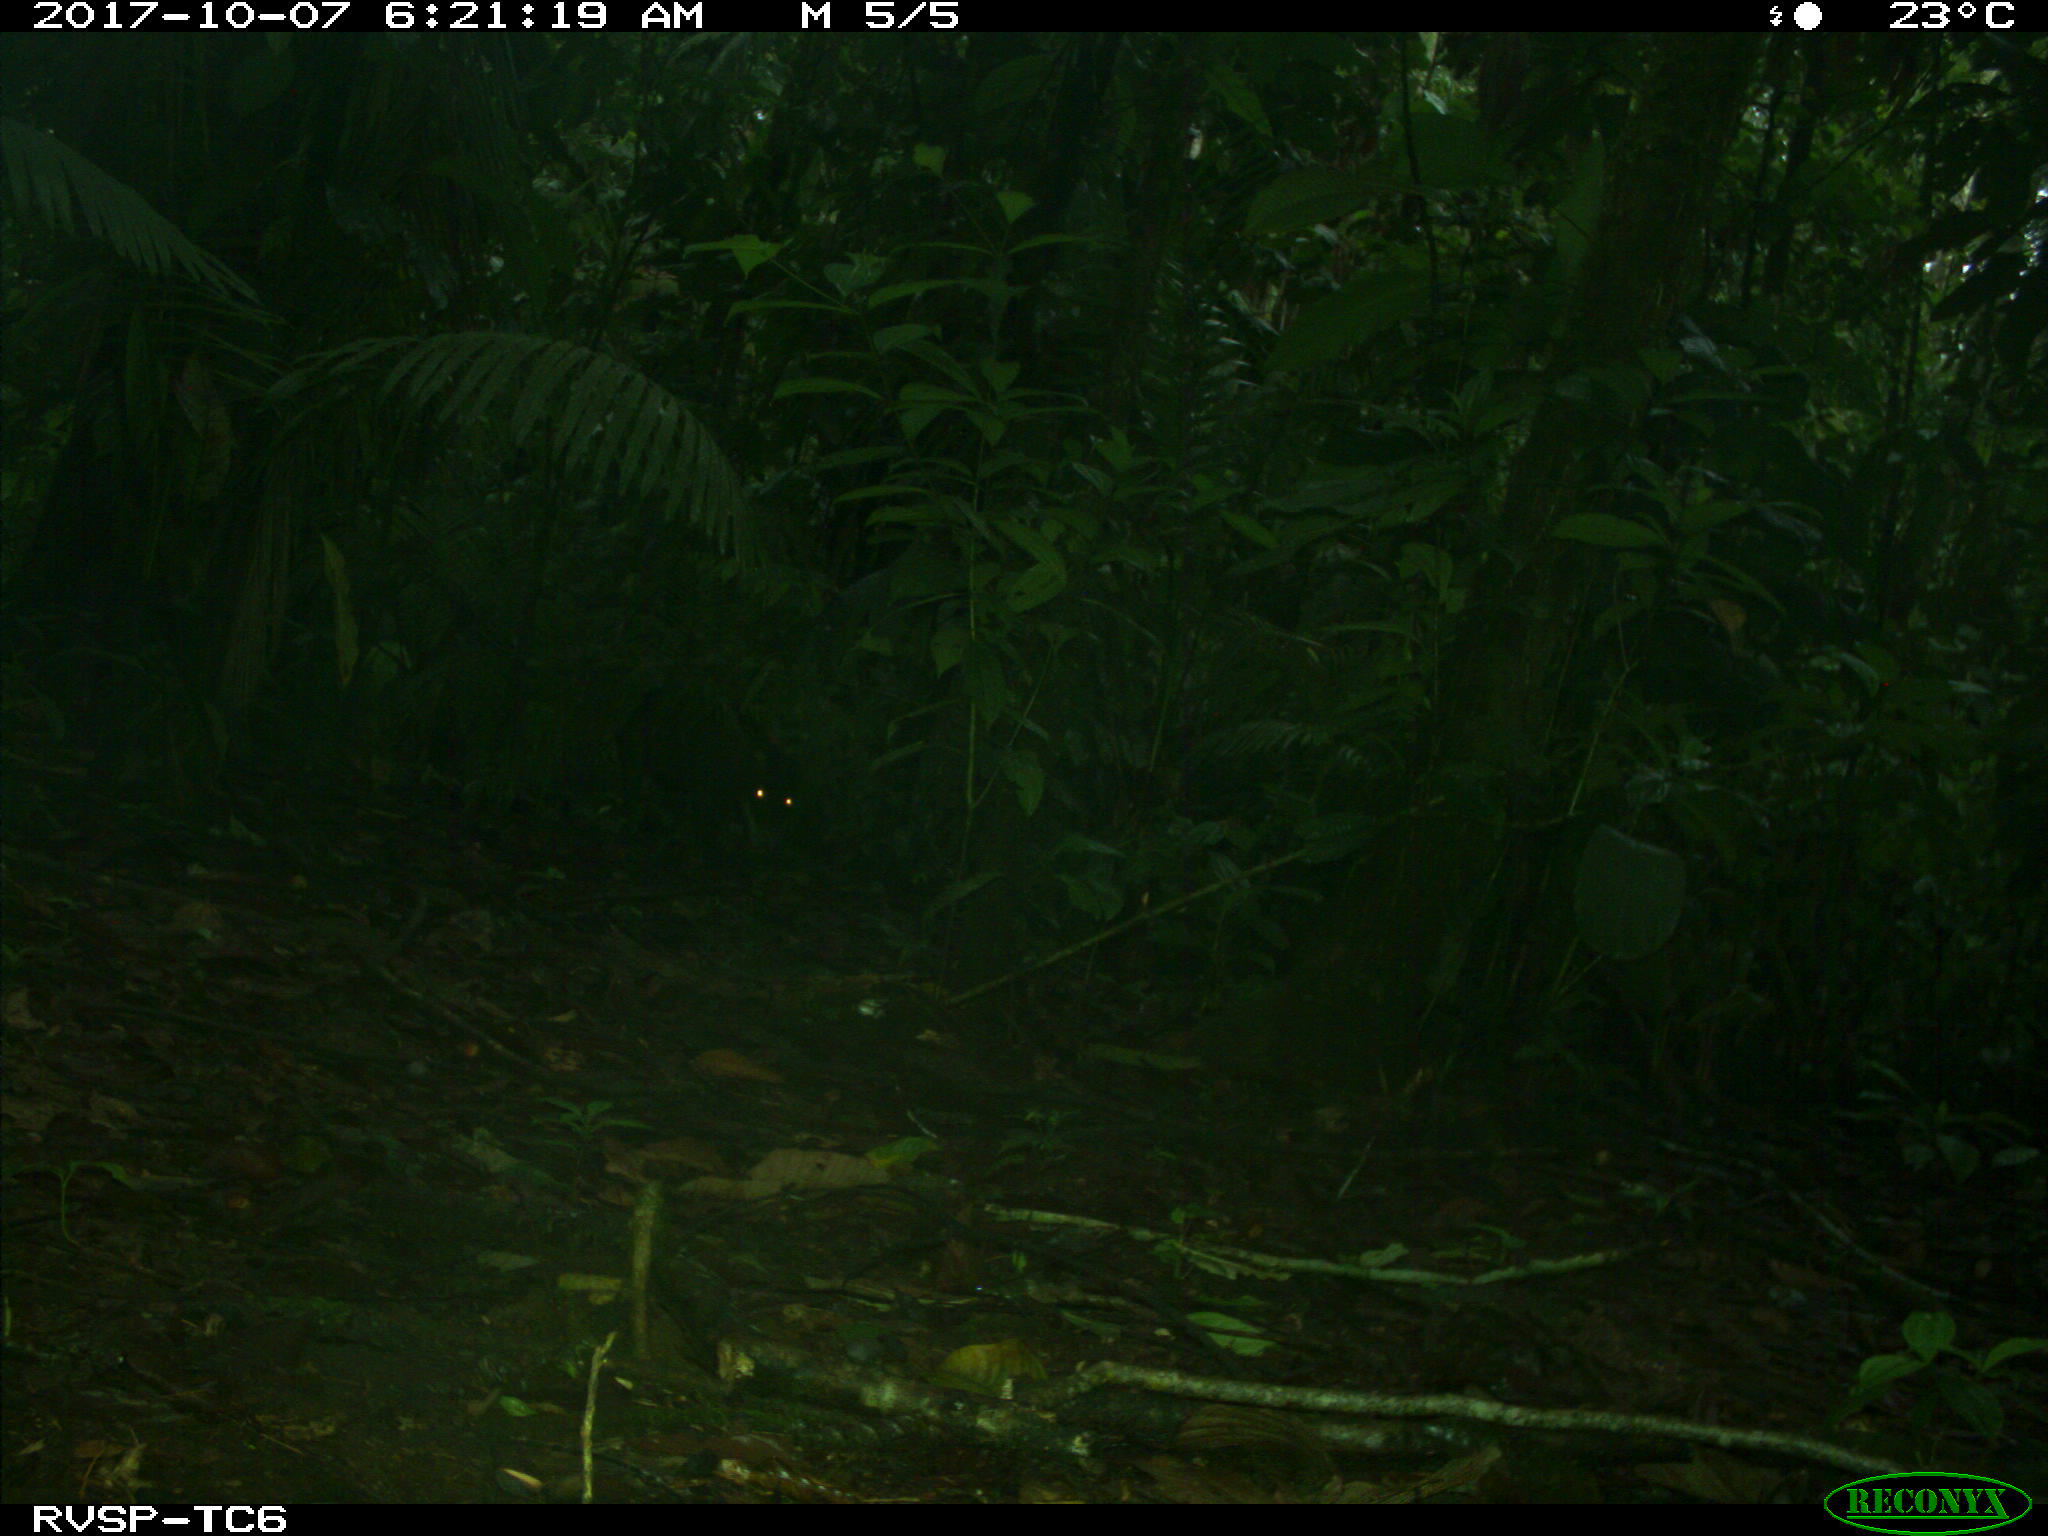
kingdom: Animalia
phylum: Chordata
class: Mammalia
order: Artiodactyla
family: Tayassuidae
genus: Tayassu
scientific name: Tayassu pecari
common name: White-lipped peccary
